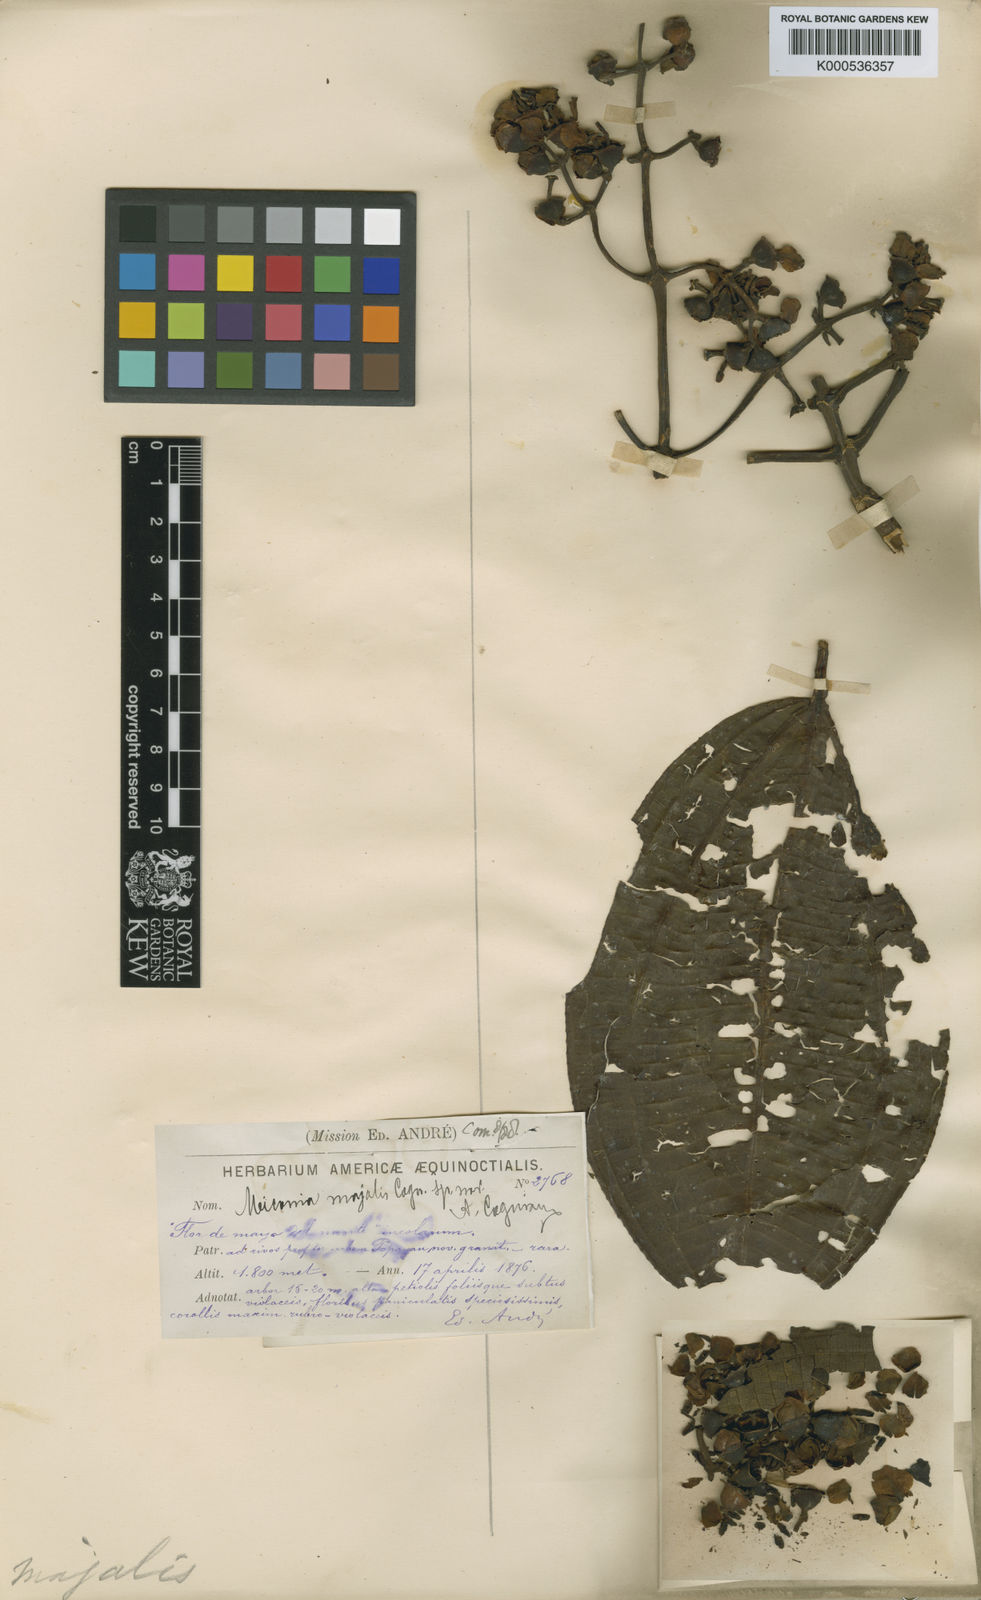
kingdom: Plantae
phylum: Tracheophyta
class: Magnoliopsida
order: Myrtales
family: Melastomataceae
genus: Miconia
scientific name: Miconia majalis
